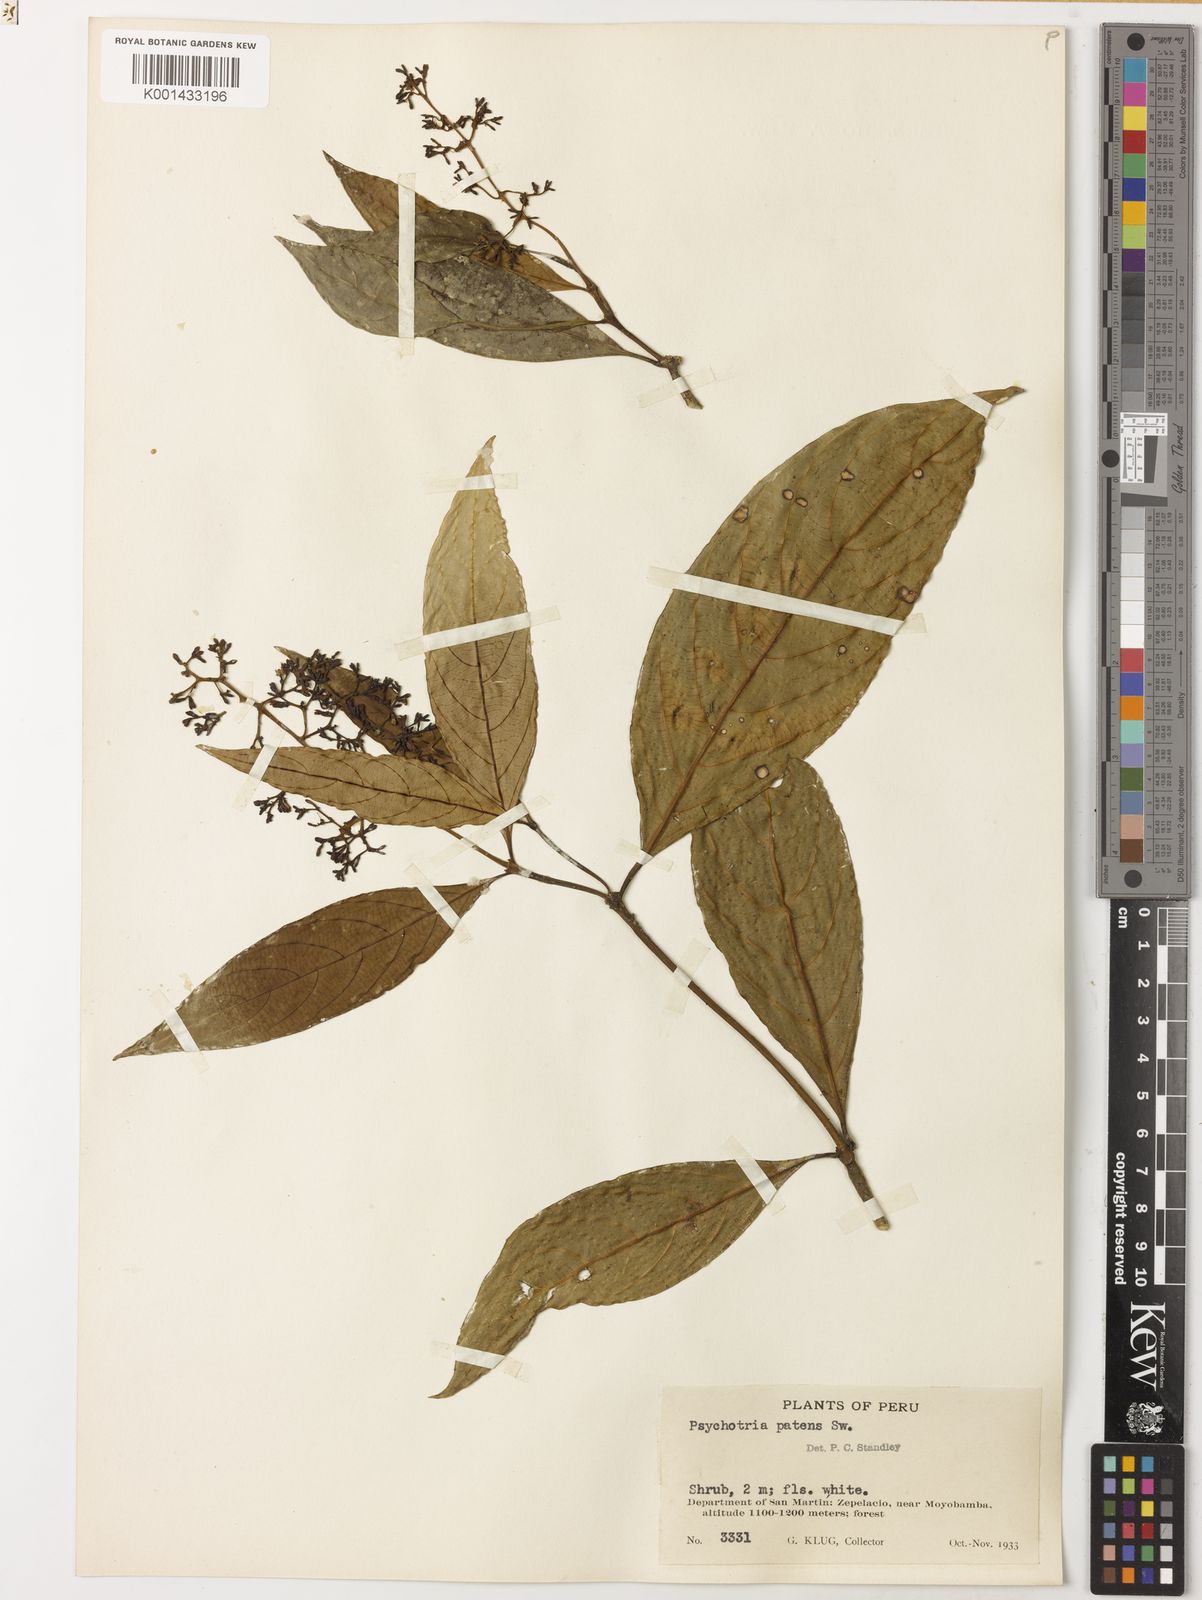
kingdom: Plantae
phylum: Tracheophyta
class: Magnoliopsida
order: Gentianales
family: Rubiaceae
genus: Palicourea
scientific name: Palicourea patens
